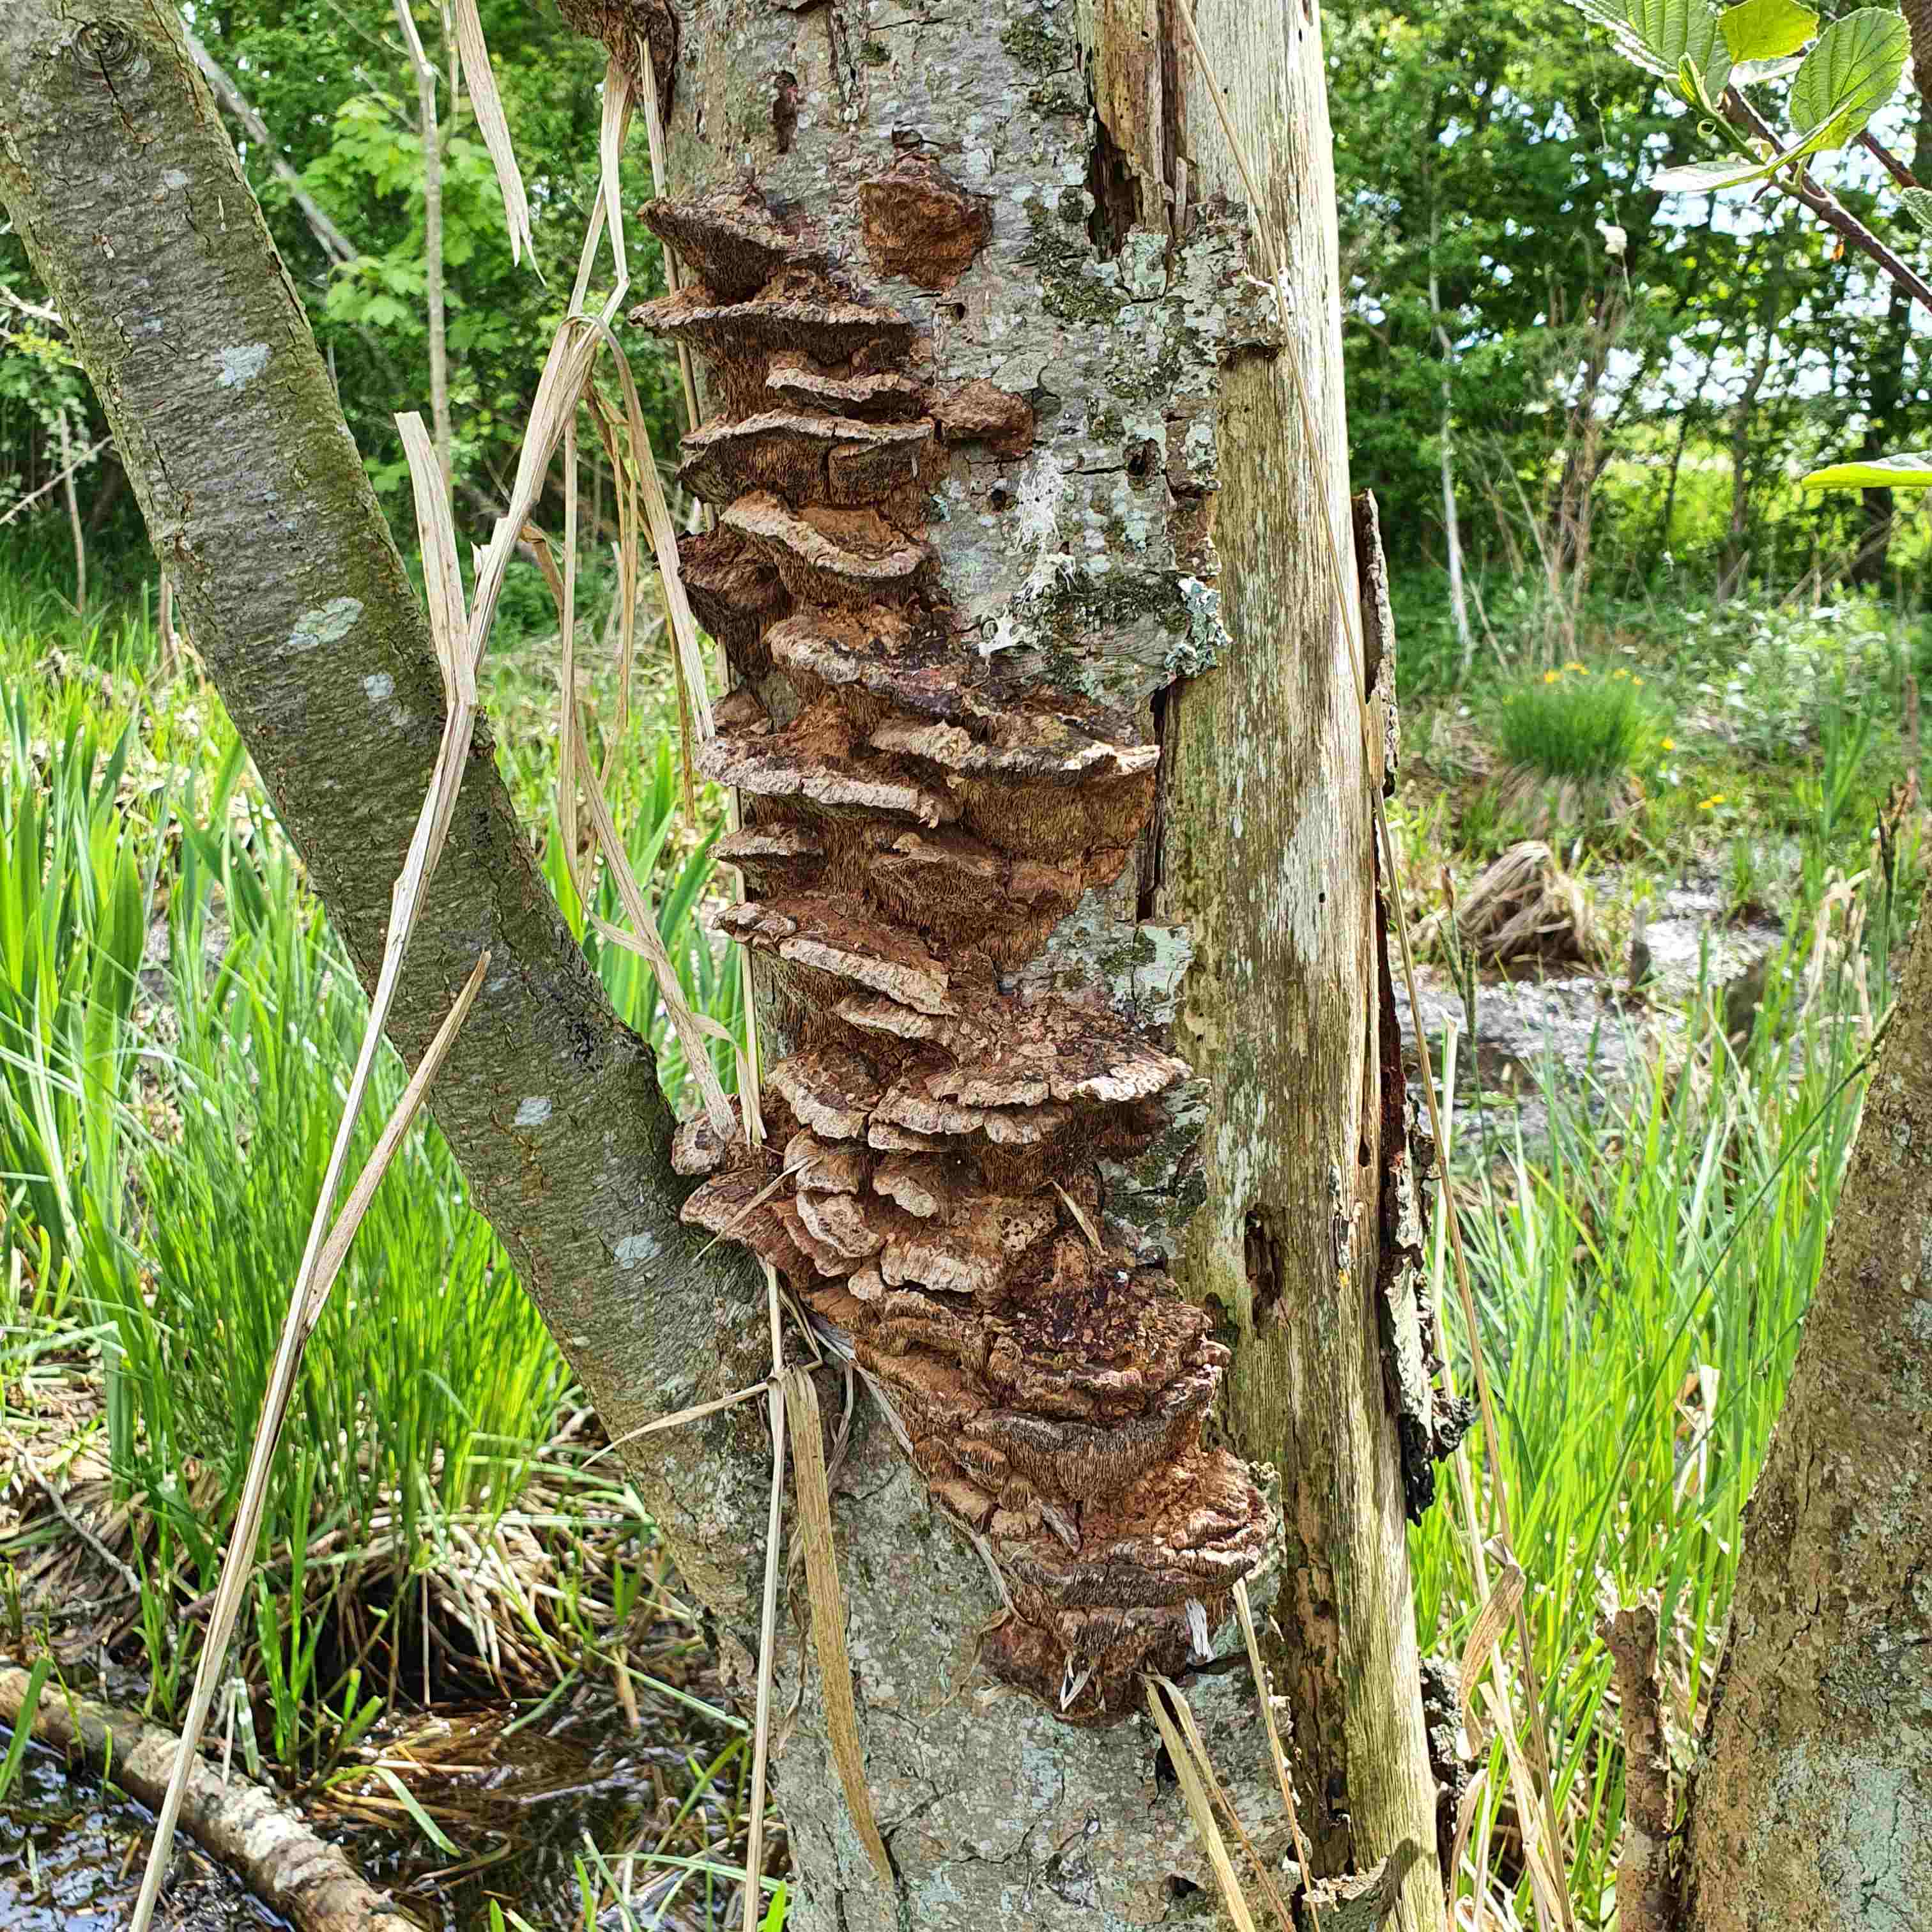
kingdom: Fungi
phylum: Basidiomycota
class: Agaricomycetes
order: Hymenochaetales
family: Hymenochaetaceae
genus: Xanthoporia
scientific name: Xanthoporia radiata
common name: elle-spejlporesvamp
